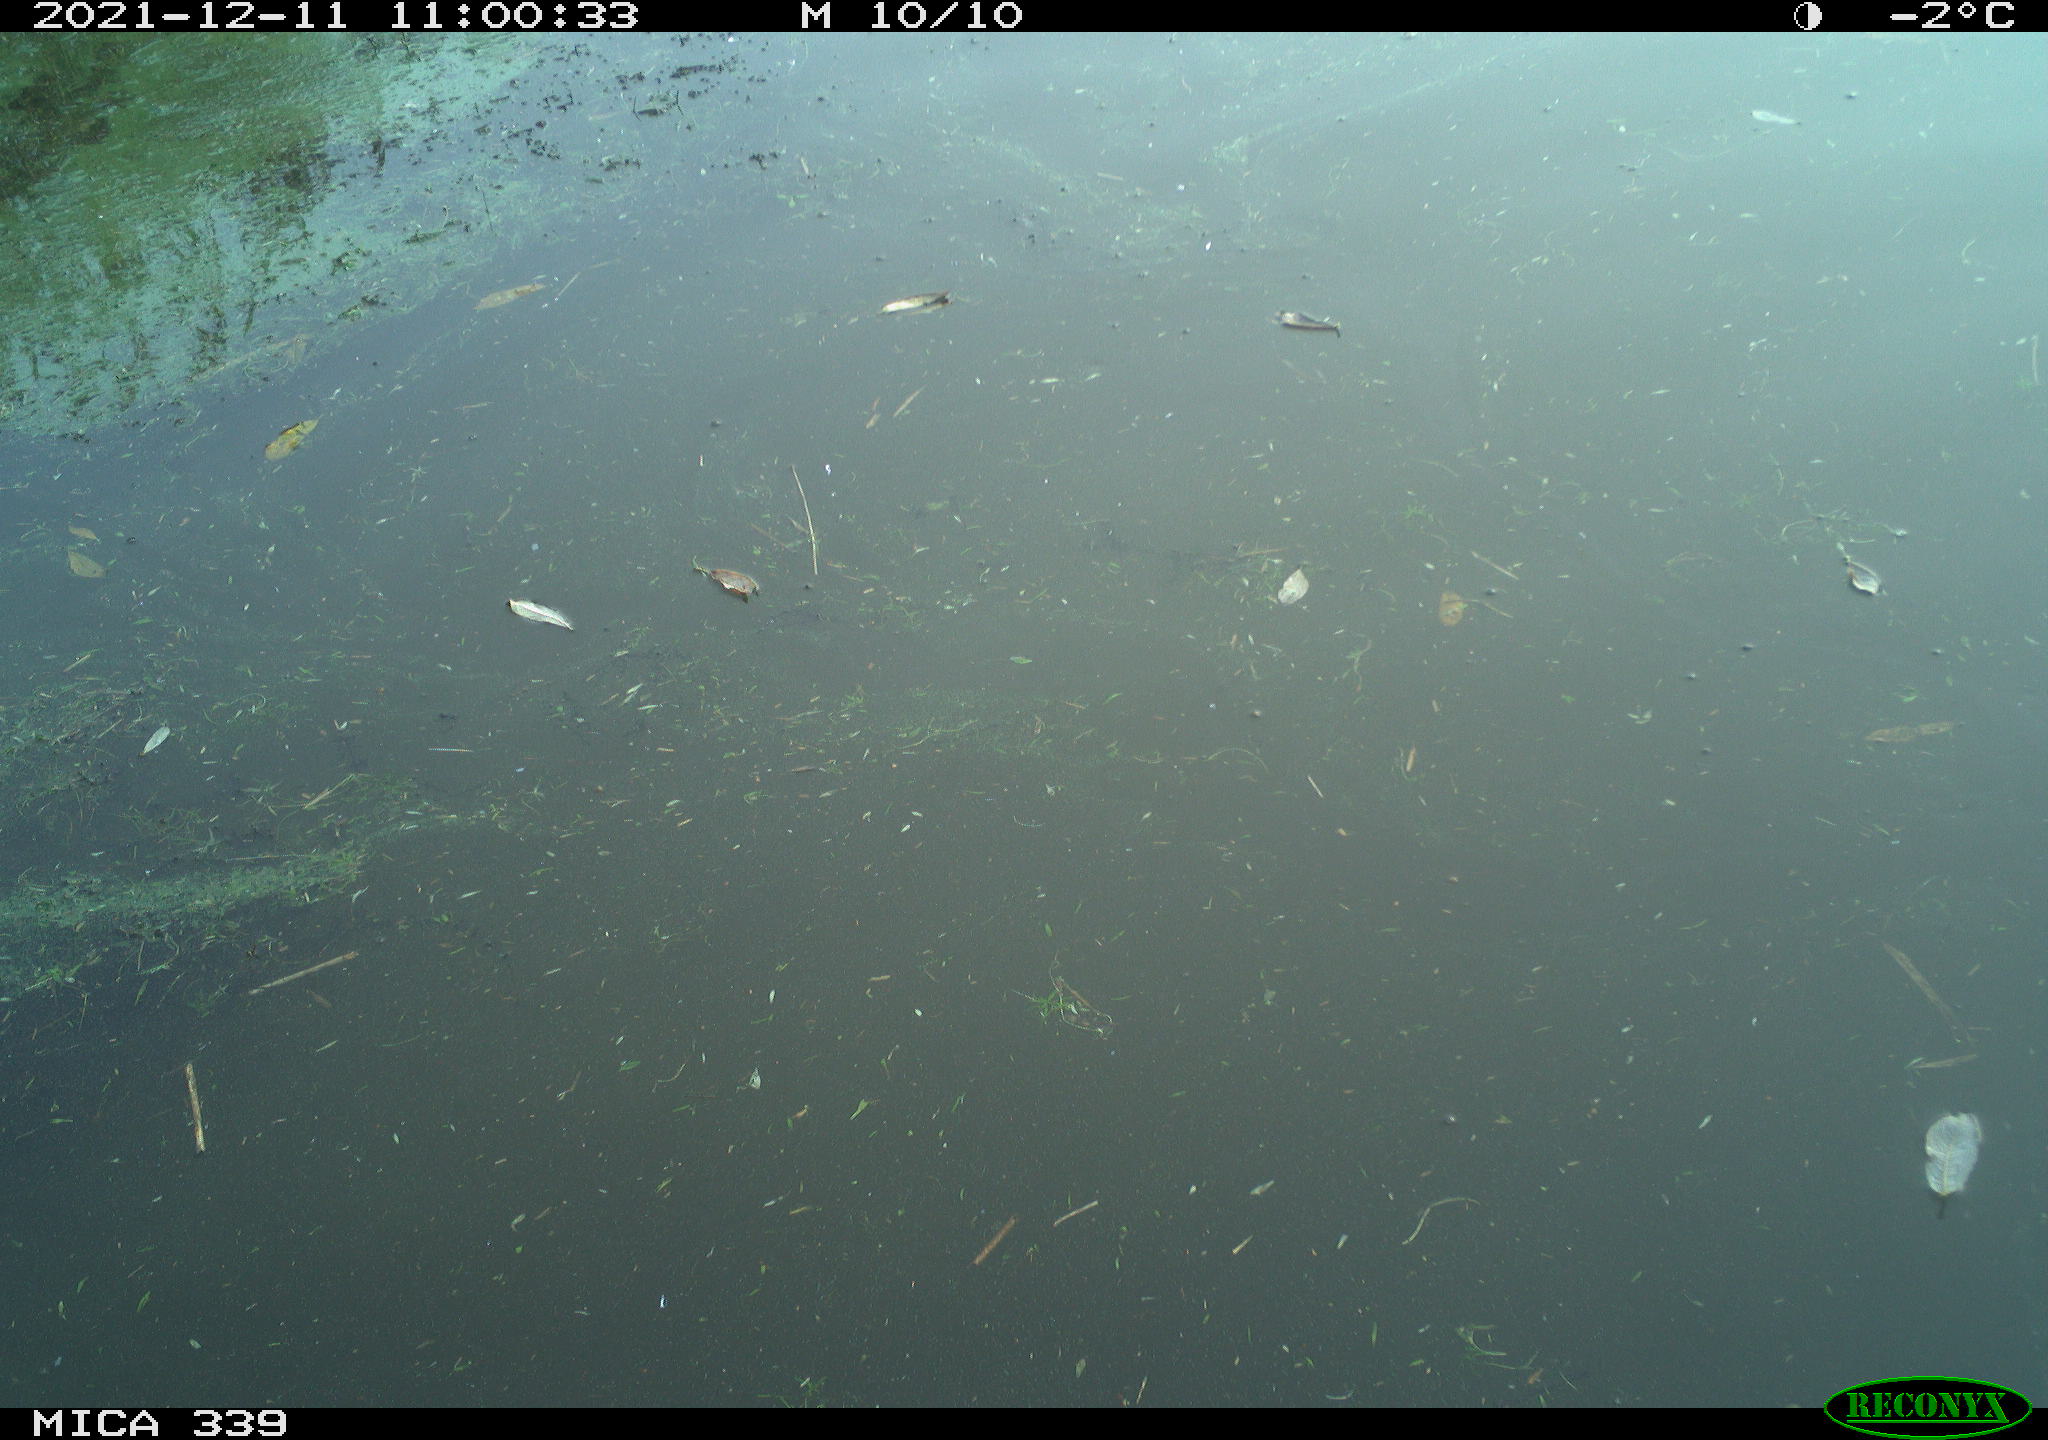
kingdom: Animalia
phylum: Chordata
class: Aves
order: Anseriformes
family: Anatidae
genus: Anas
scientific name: Anas platyrhynchos
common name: Mallard
